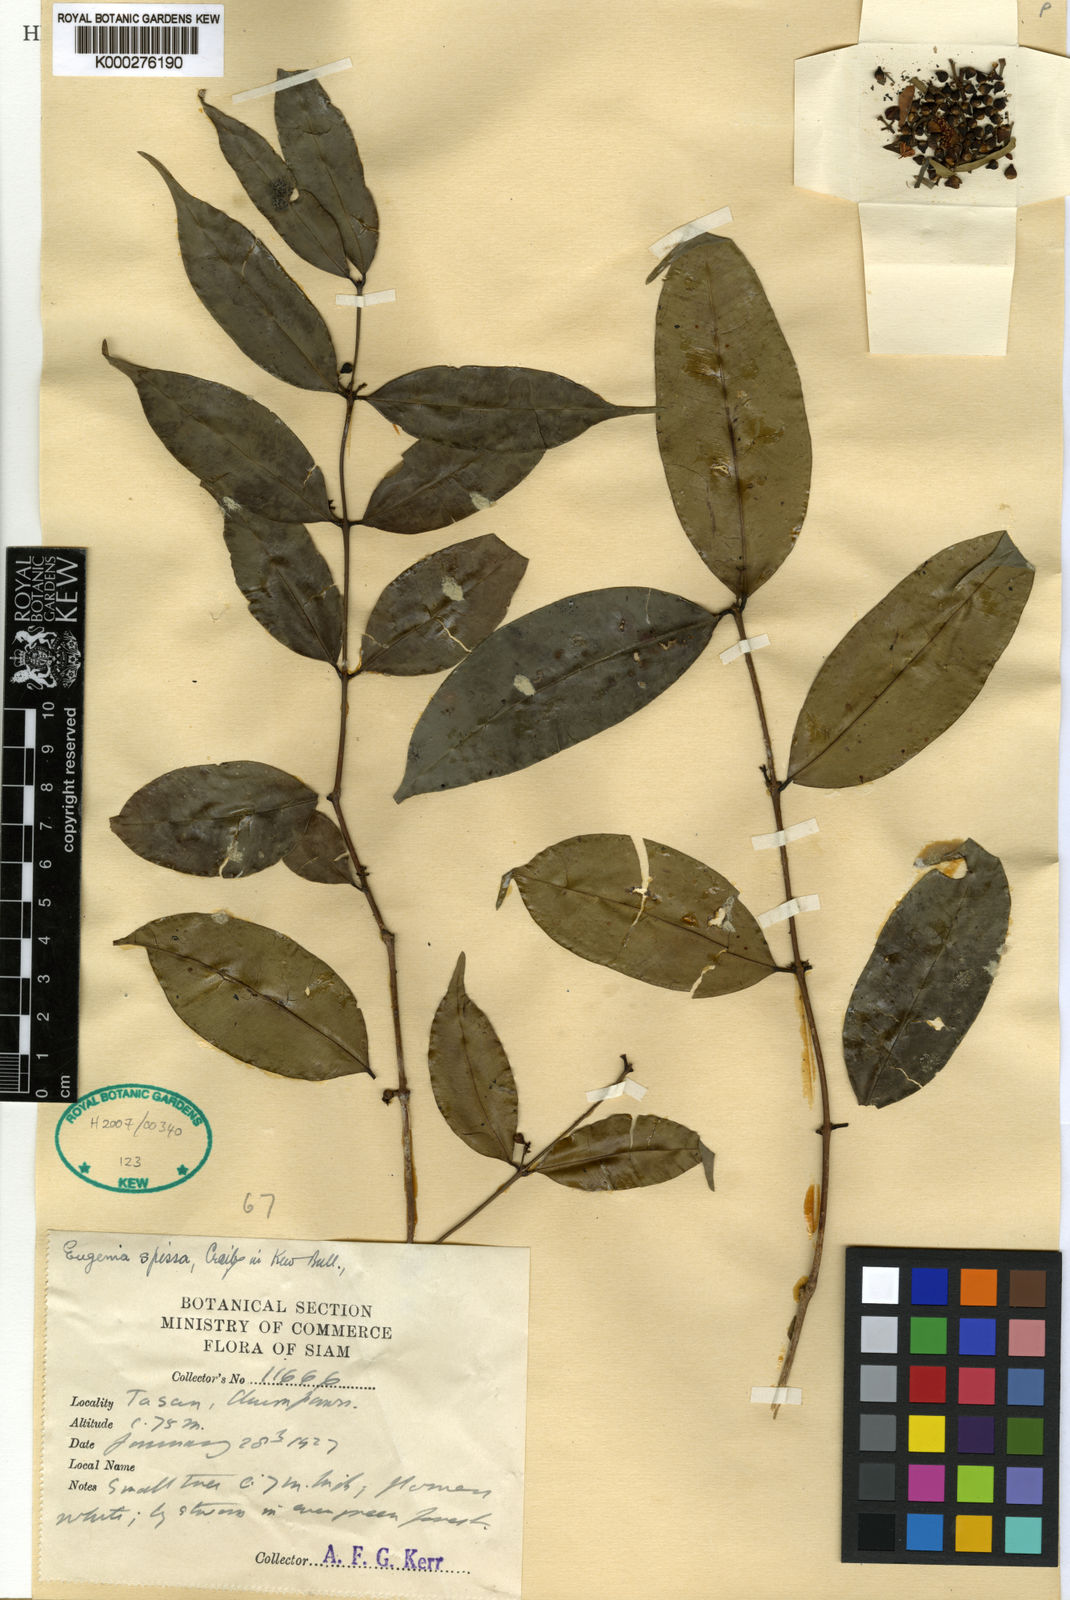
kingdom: Plantae
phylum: Tracheophyta
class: Magnoliopsida
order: Myrtales
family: Myrtaceae
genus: Syzygium
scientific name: Syzygium cordifolium
